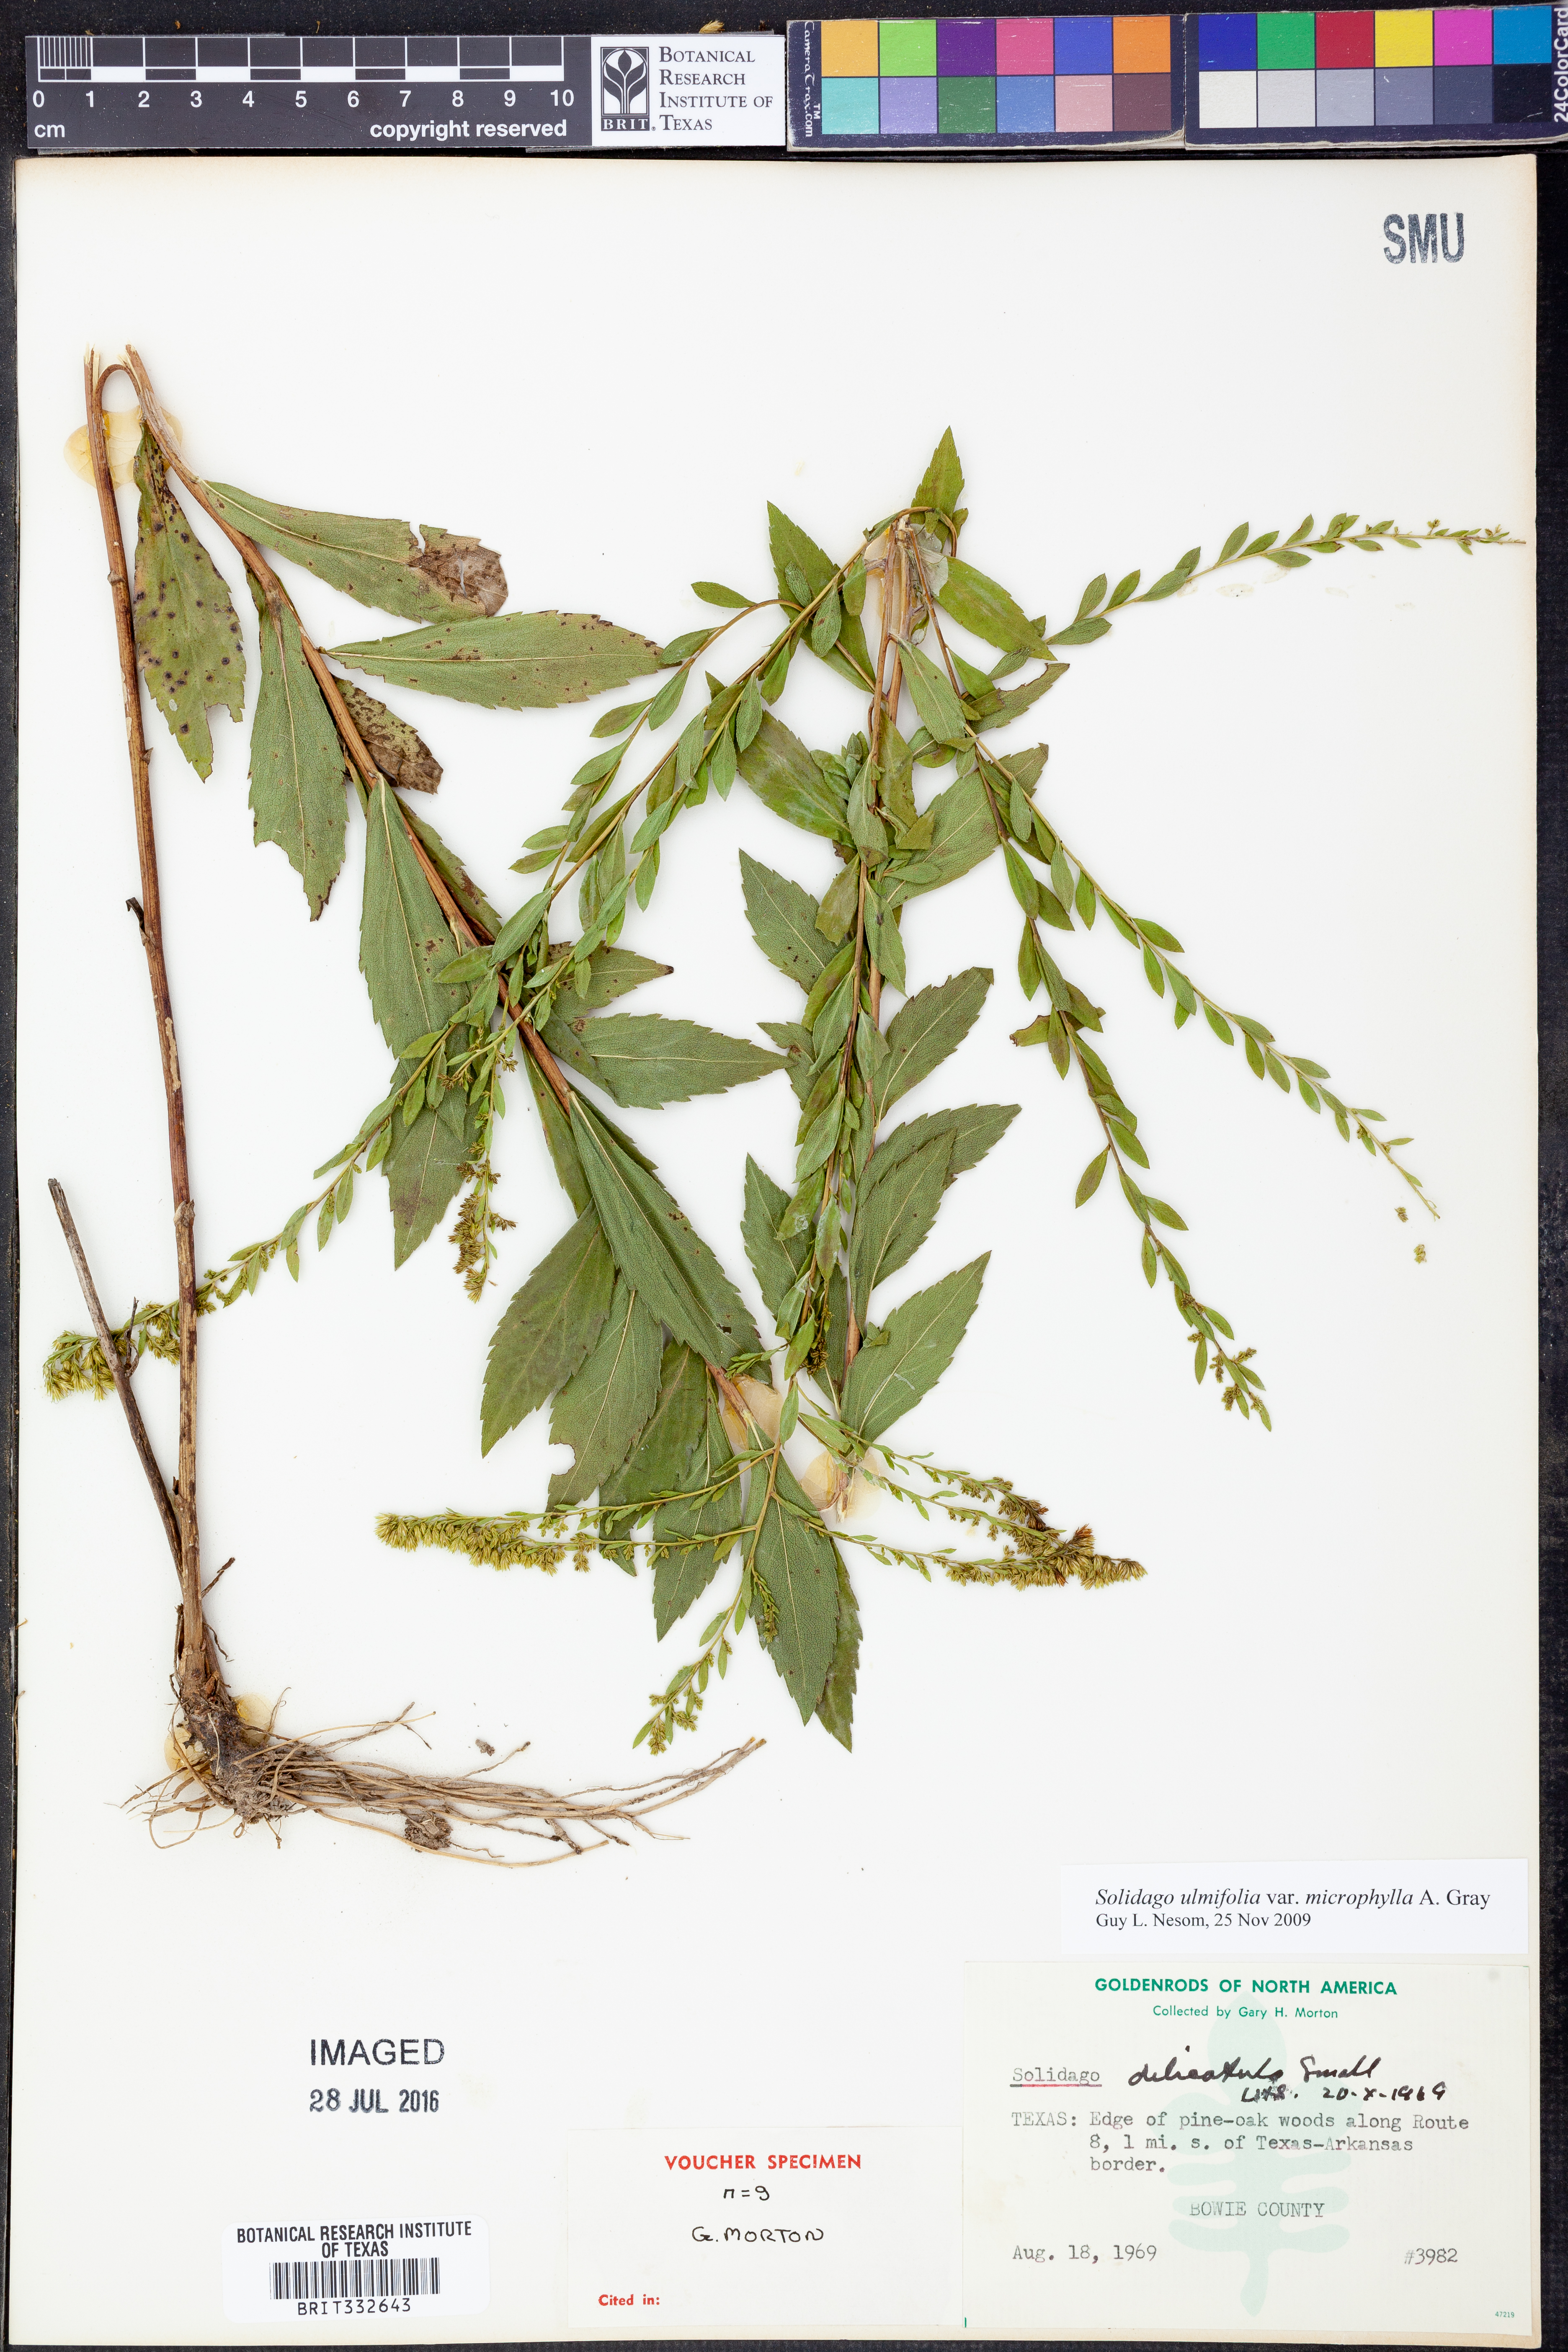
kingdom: Plantae
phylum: Tracheophyta
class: Magnoliopsida
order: Asterales
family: Asteraceae
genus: Solidago
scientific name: Solidago delicatula
